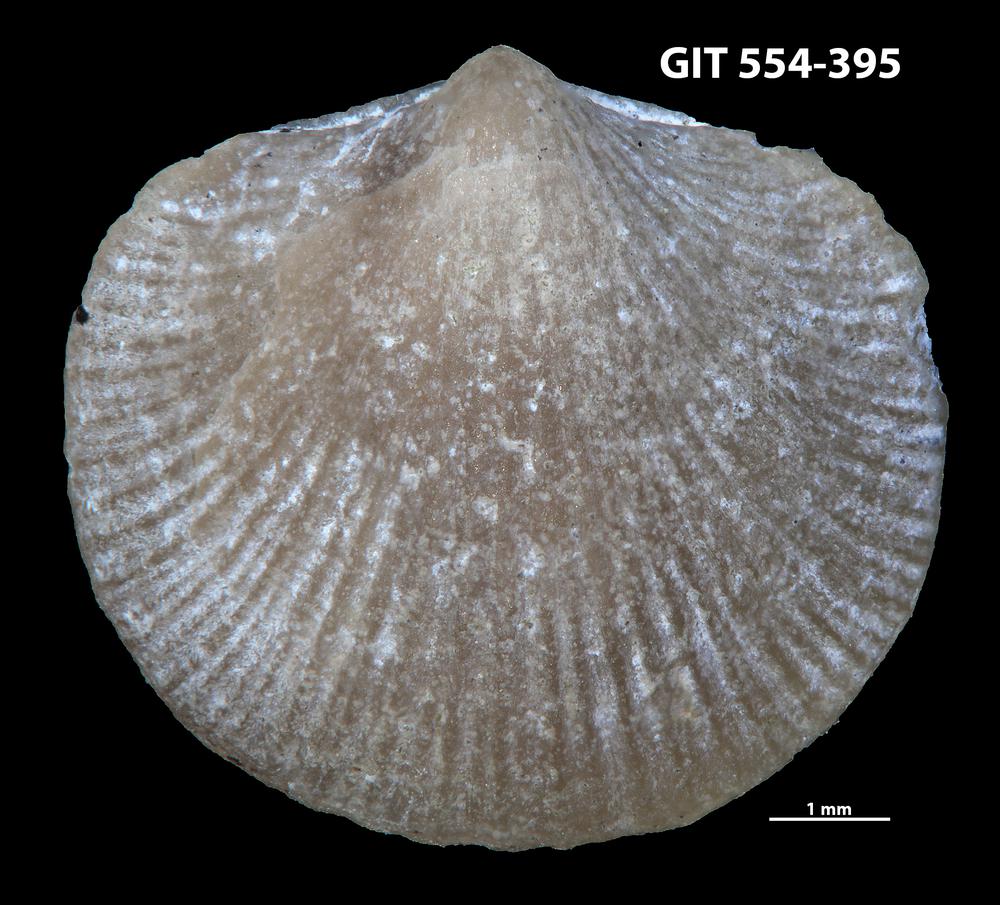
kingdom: Animalia
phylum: Brachiopoda
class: Rhynchonellata
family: Dalmanellidae
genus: Isorthis
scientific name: Isorthis Onniella mediocra
